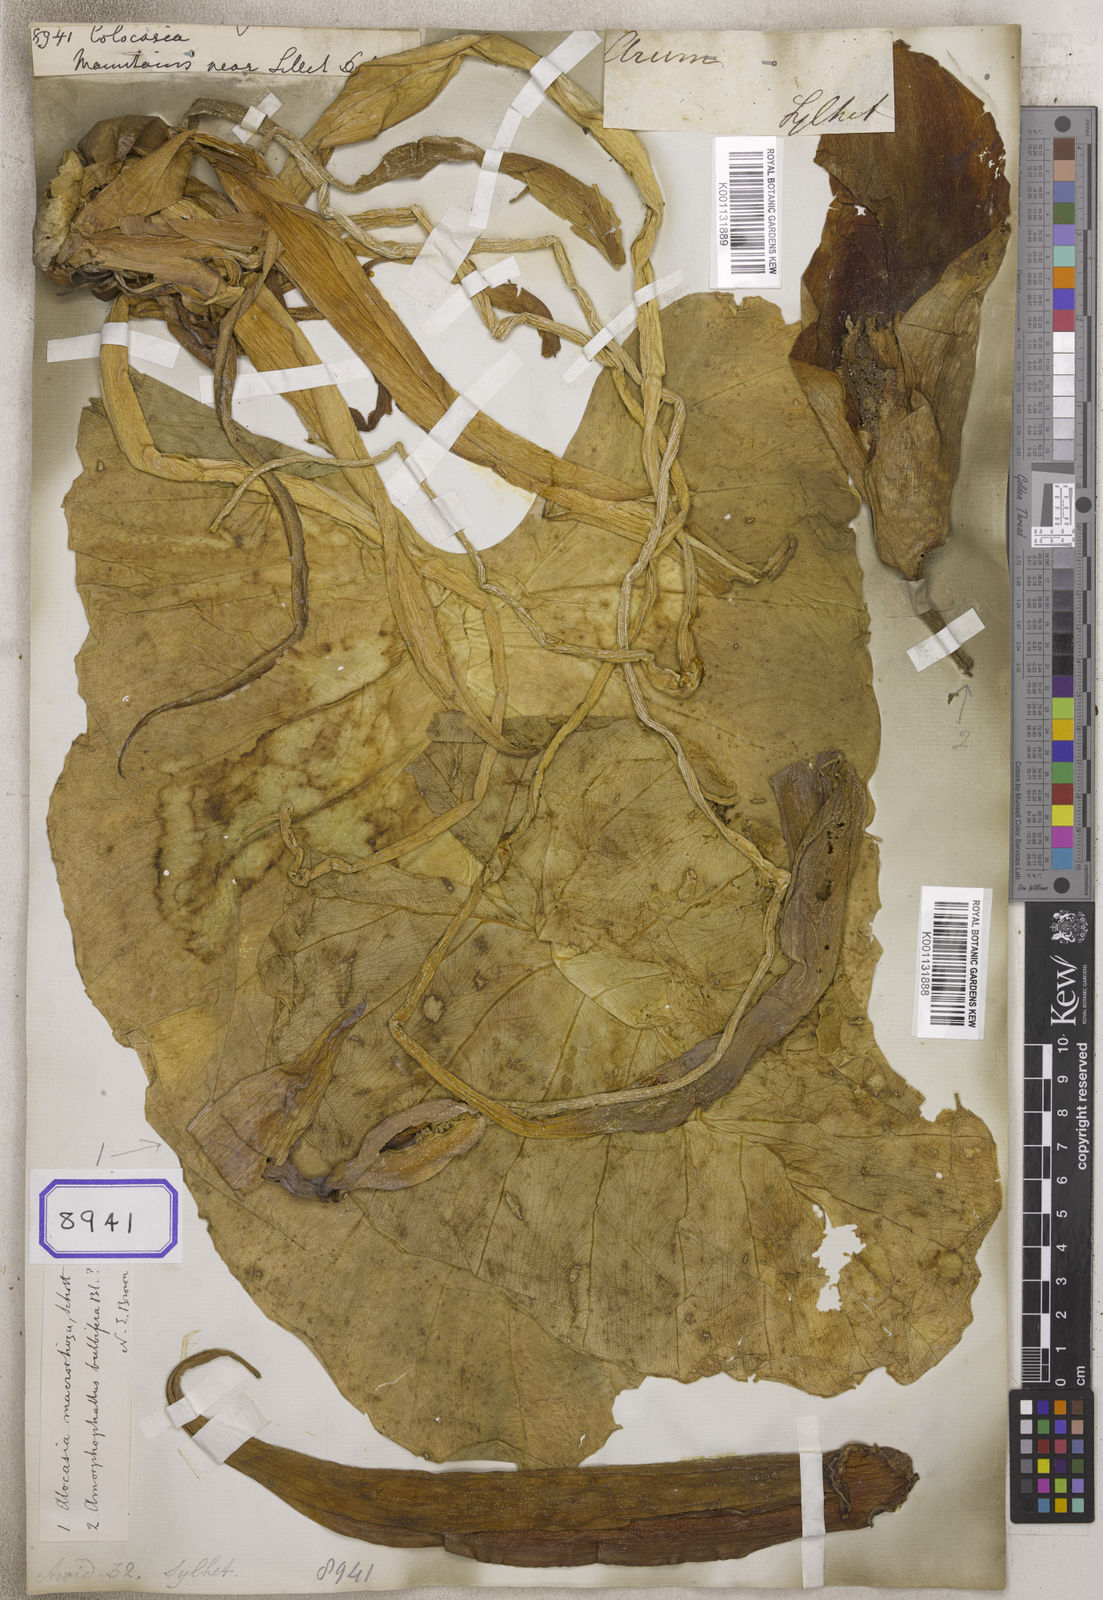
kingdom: Plantae
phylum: Tracheophyta
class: Liliopsida
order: Alismatales
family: Araceae
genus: Colocasia
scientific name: Colocasia spec
